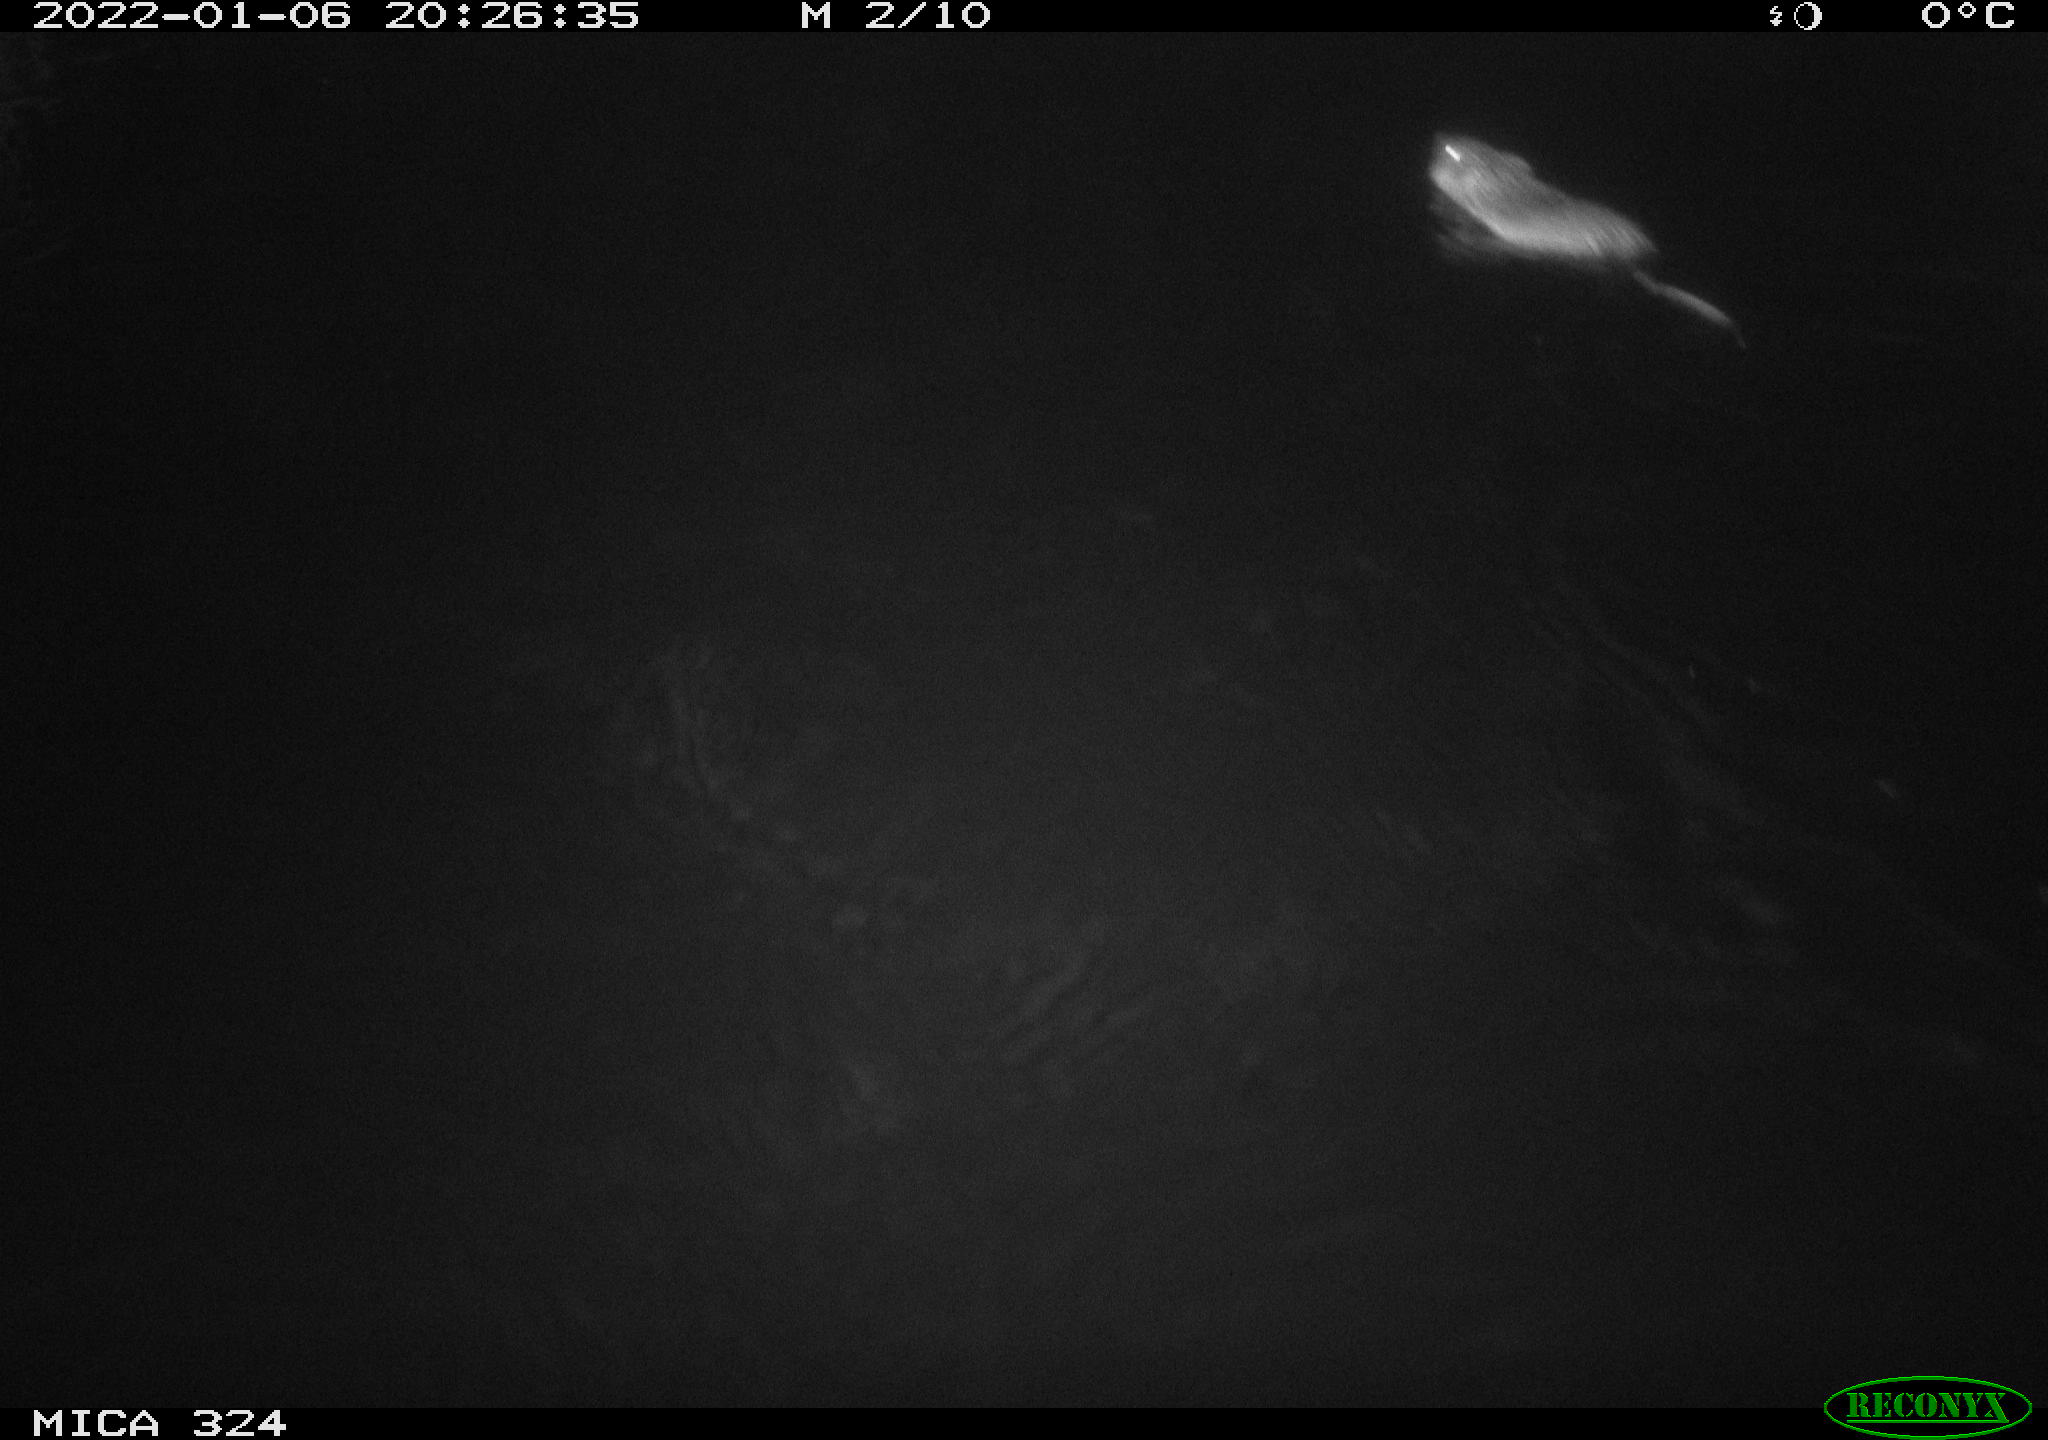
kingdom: Animalia
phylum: Chordata
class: Mammalia
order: Rodentia
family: Cricetidae
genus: Ondatra
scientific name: Ondatra zibethicus
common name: Muskrat
